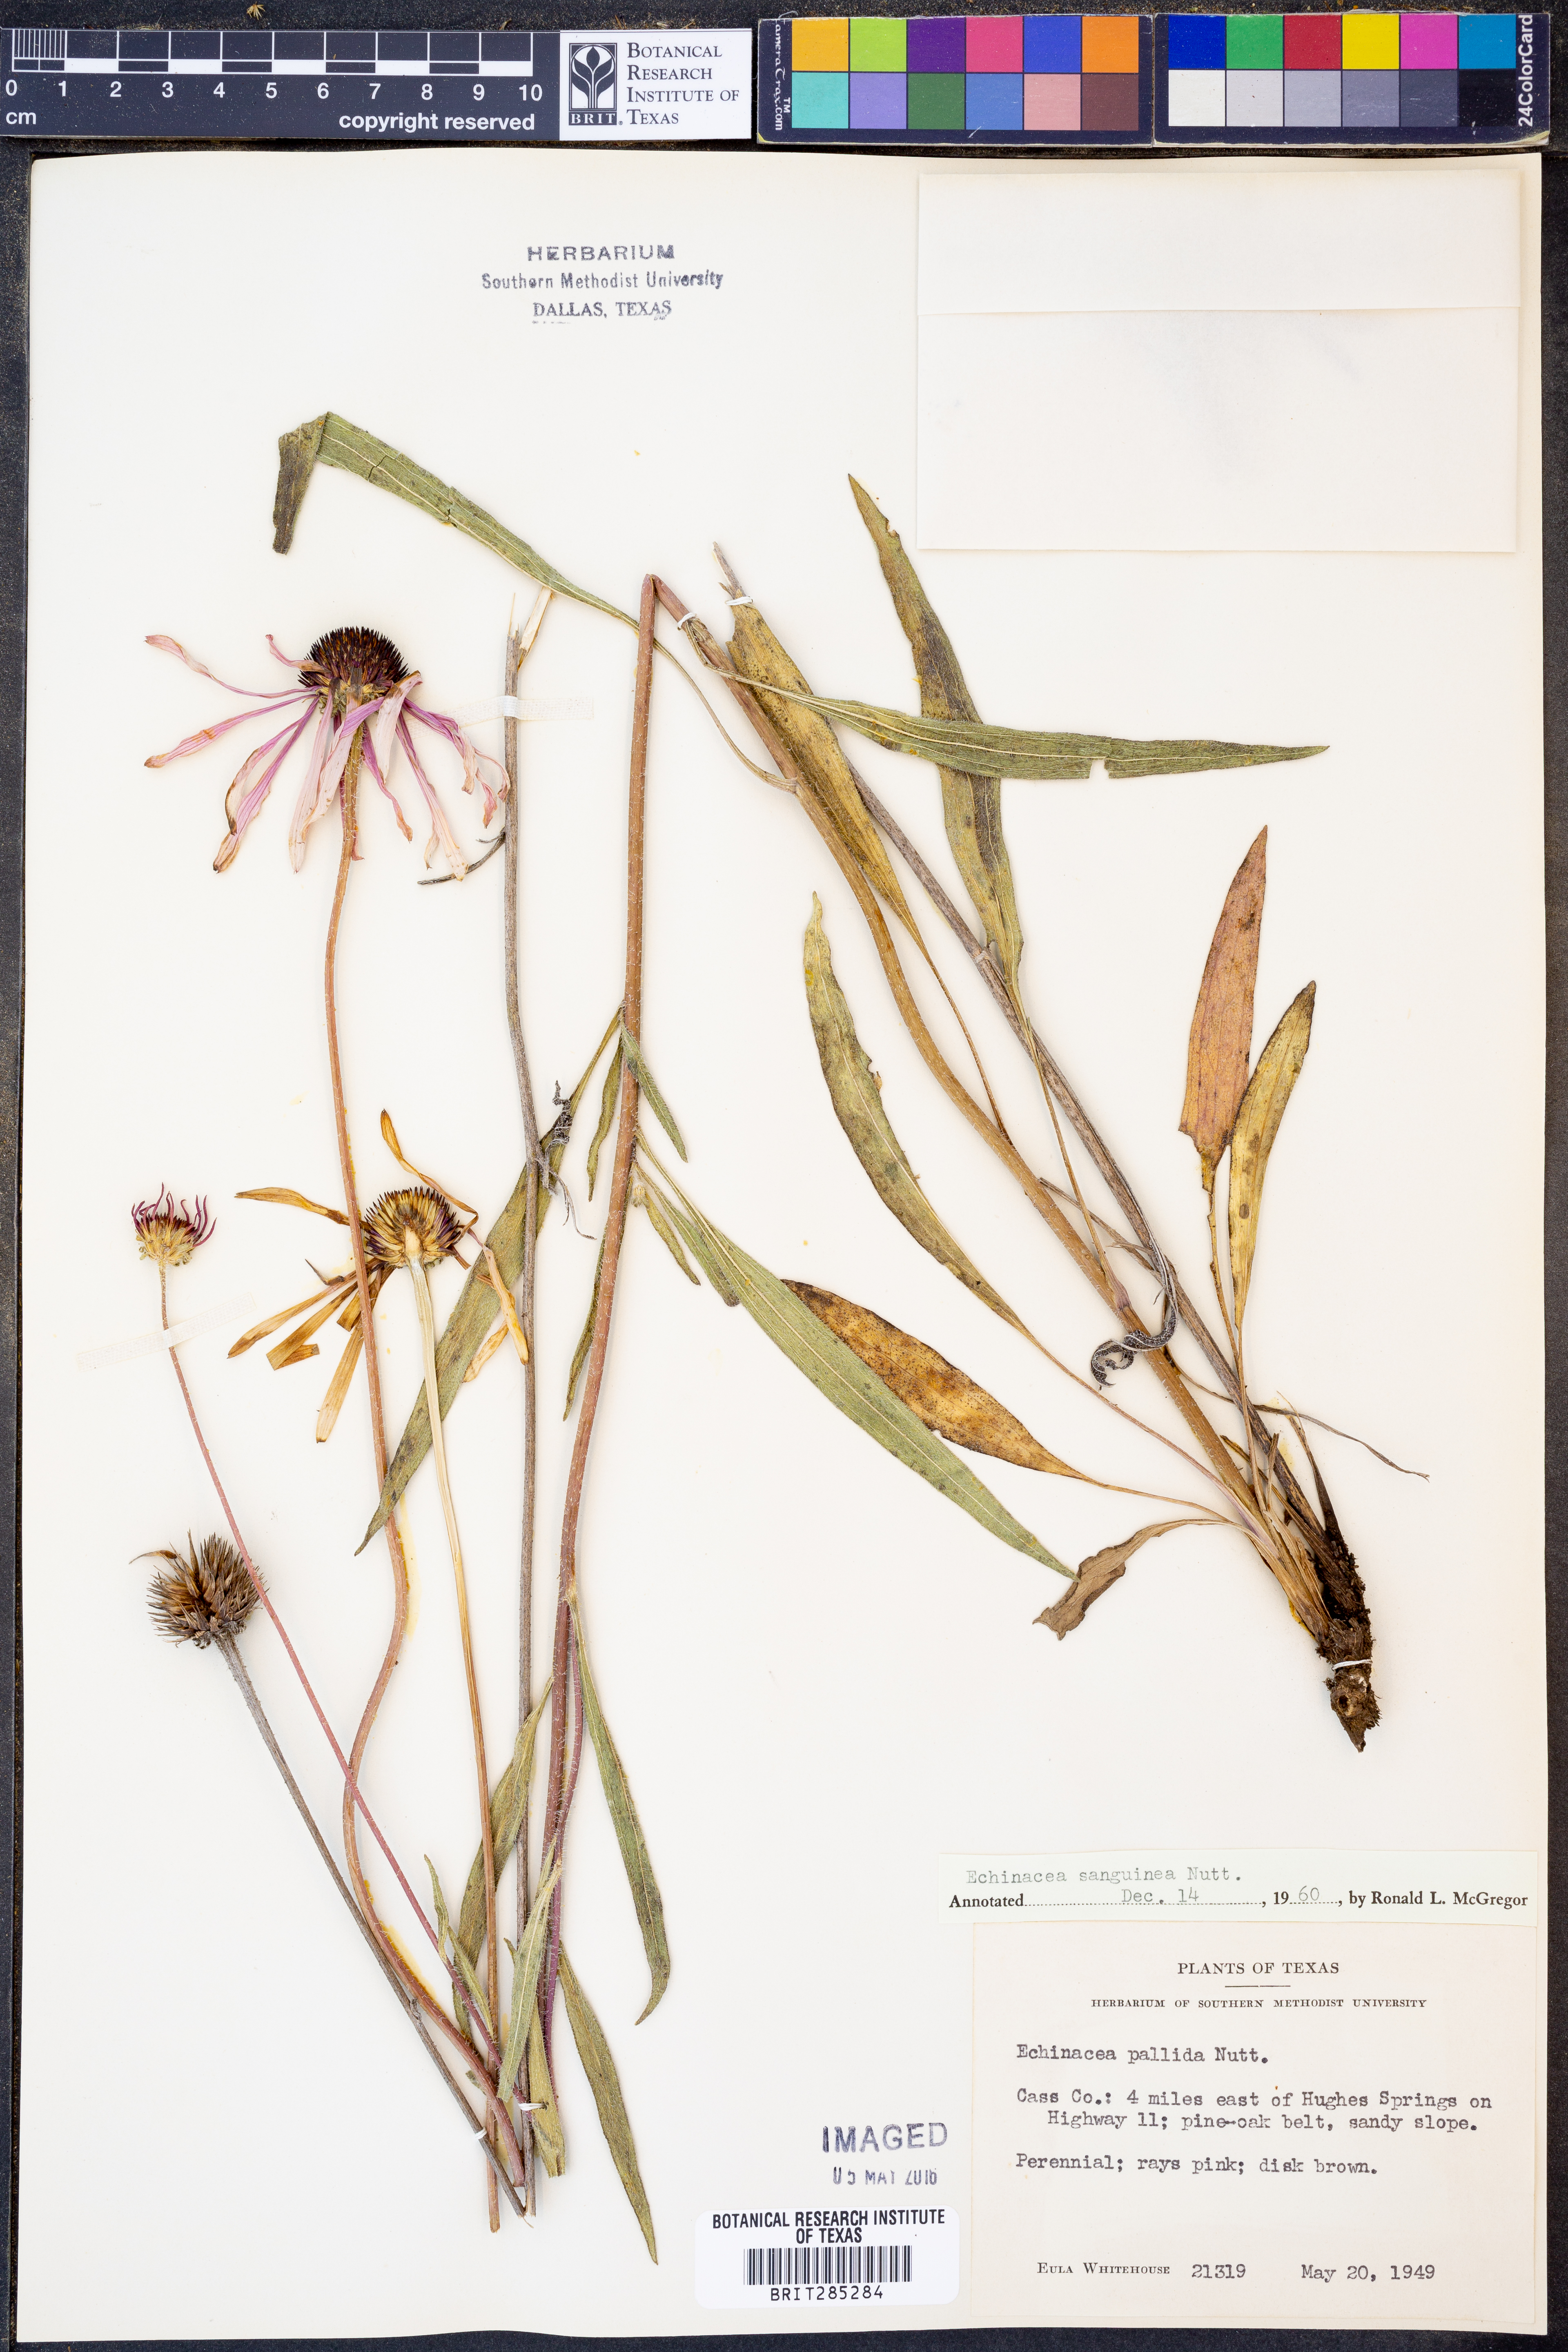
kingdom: Plantae
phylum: Tracheophyta
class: Magnoliopsida
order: Asterales
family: Asteraceae
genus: Echinacea
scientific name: Echinacea sanguinea
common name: Sanguine purple-coneflower
